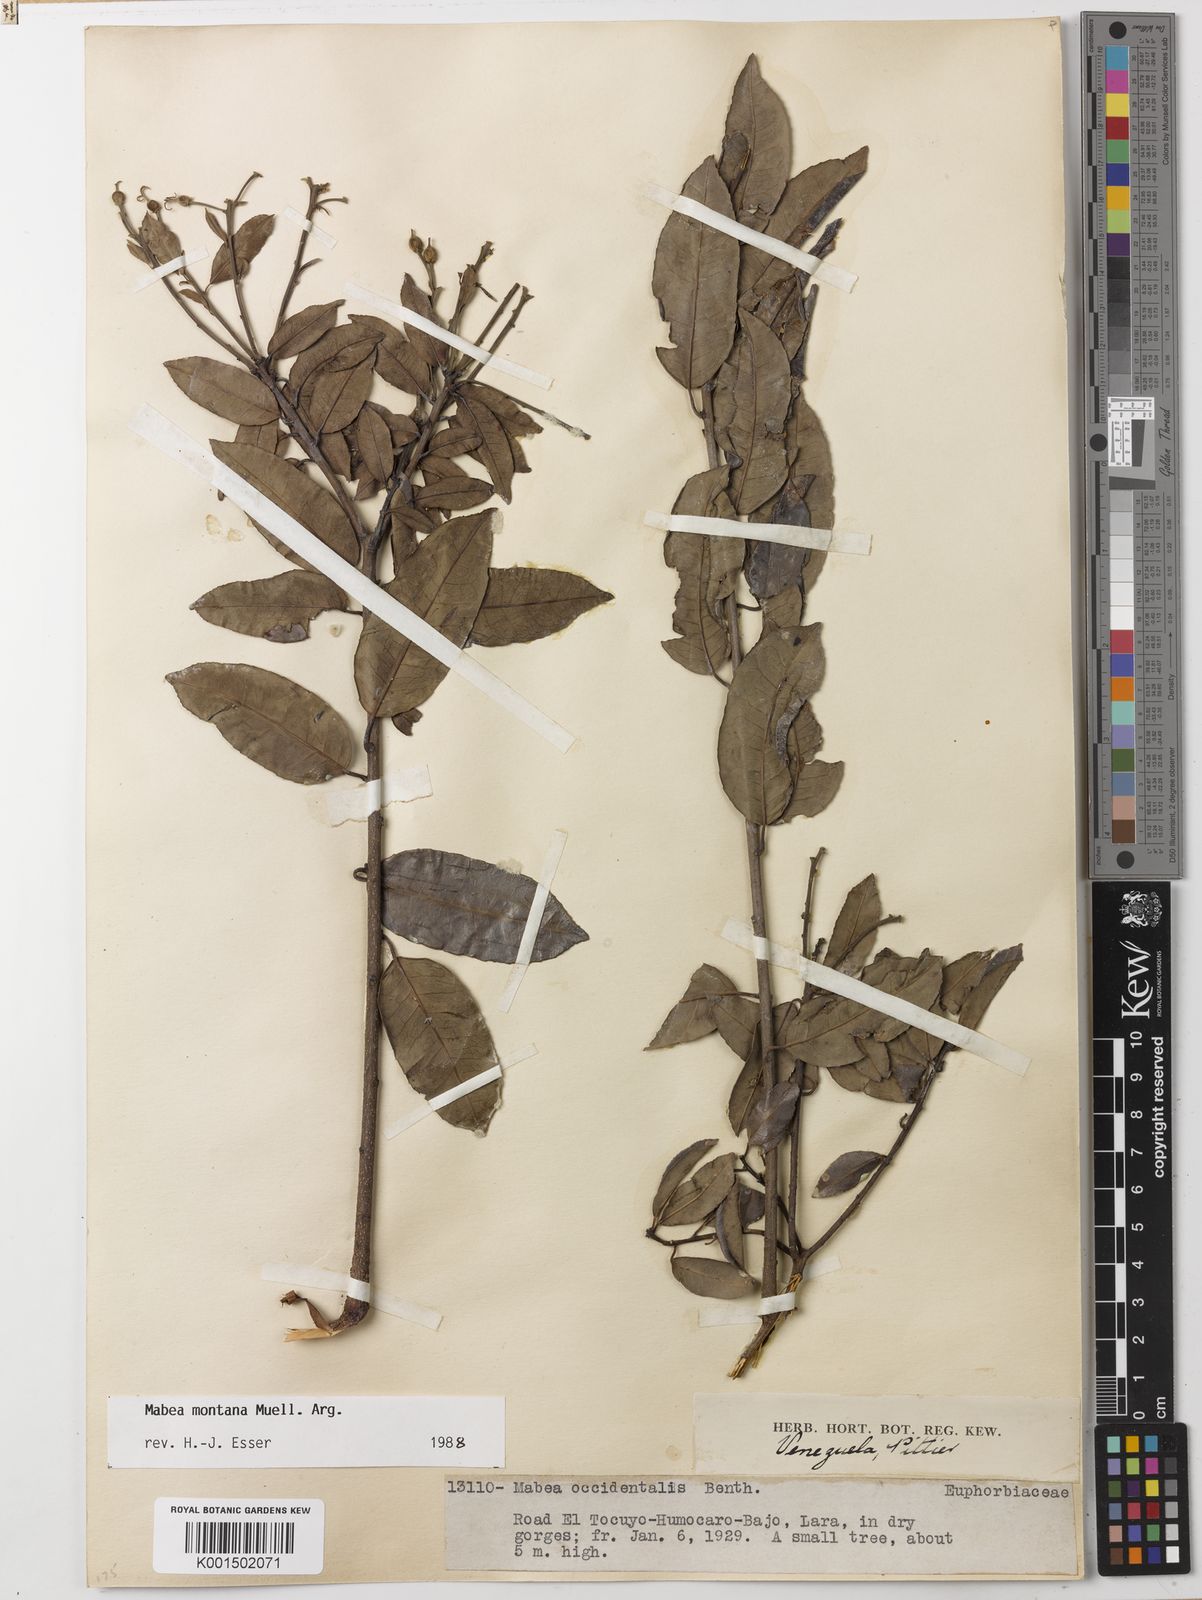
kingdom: Plantae
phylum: Tracheophyta
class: Magnoliopsida
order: Malpighiales
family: Euphorbiaceae
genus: Mabea
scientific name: Mabea montana
